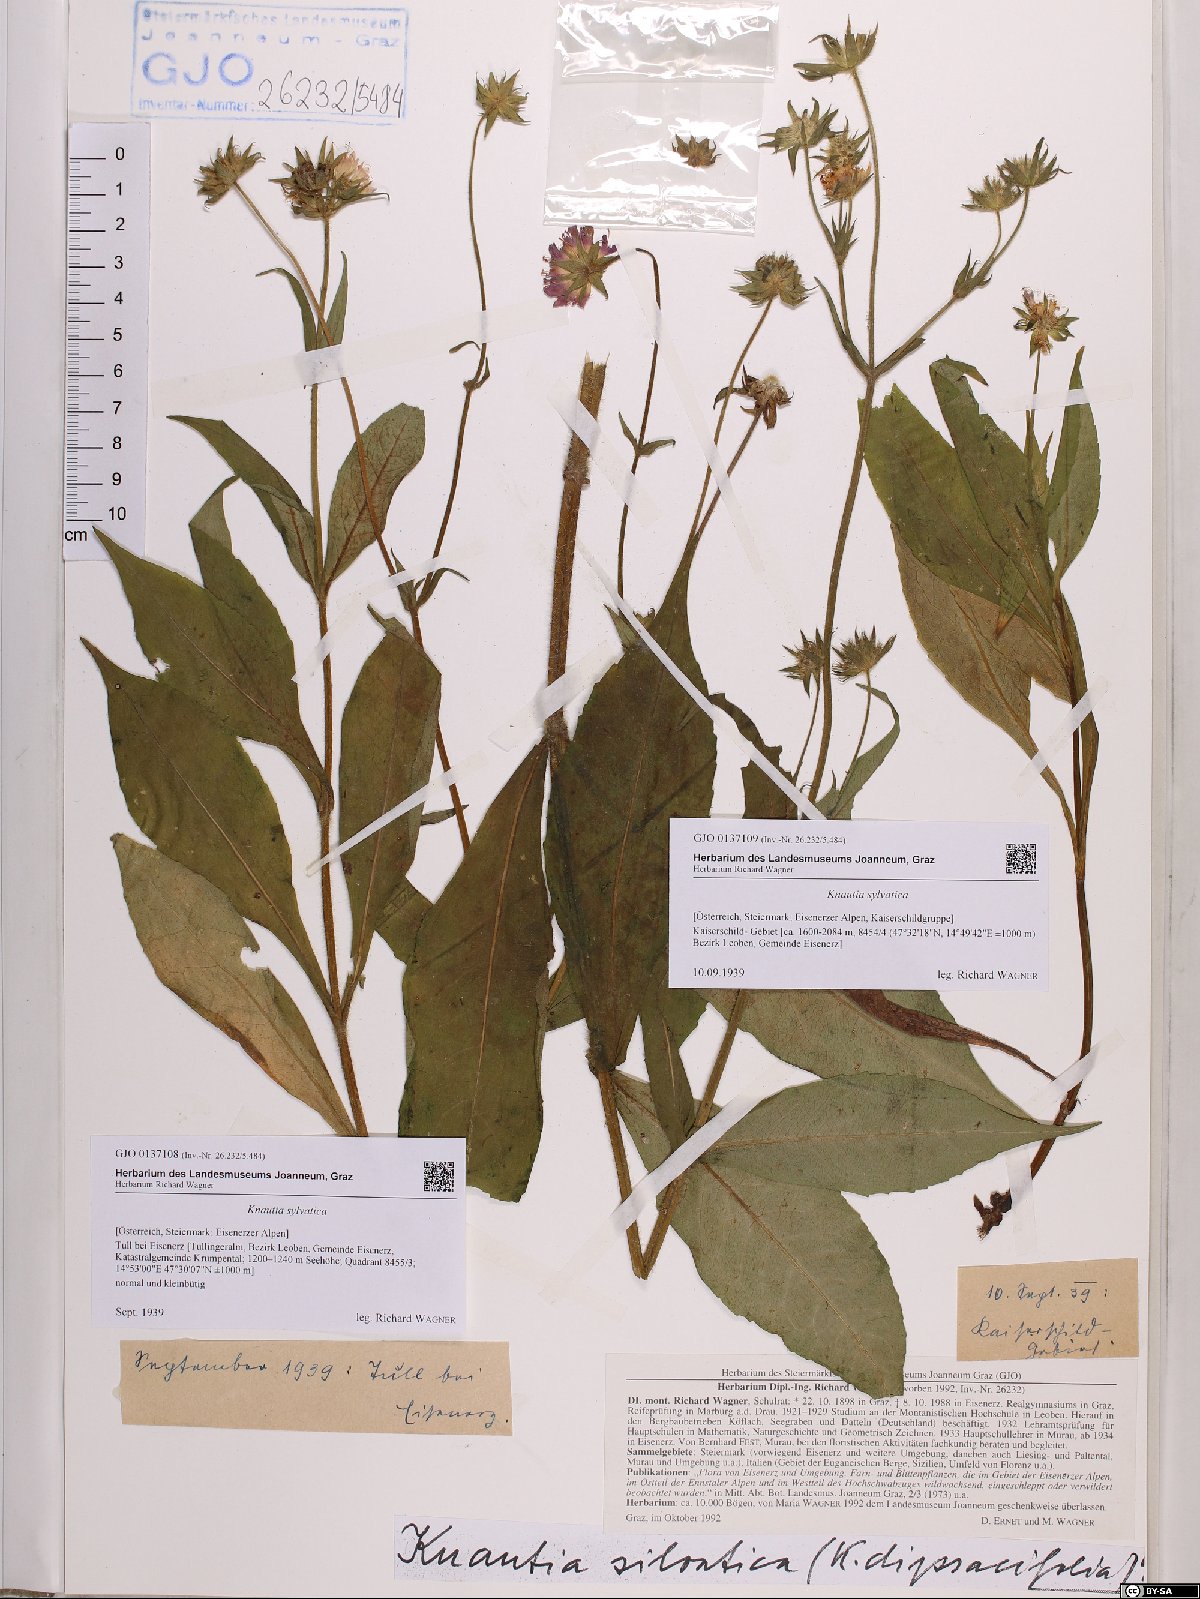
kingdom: Plantae
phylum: Tracheophyta
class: Magnoliopsida
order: Dipsacales
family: Caprifoliaceae
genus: Knautia
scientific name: Knautia drymeia
